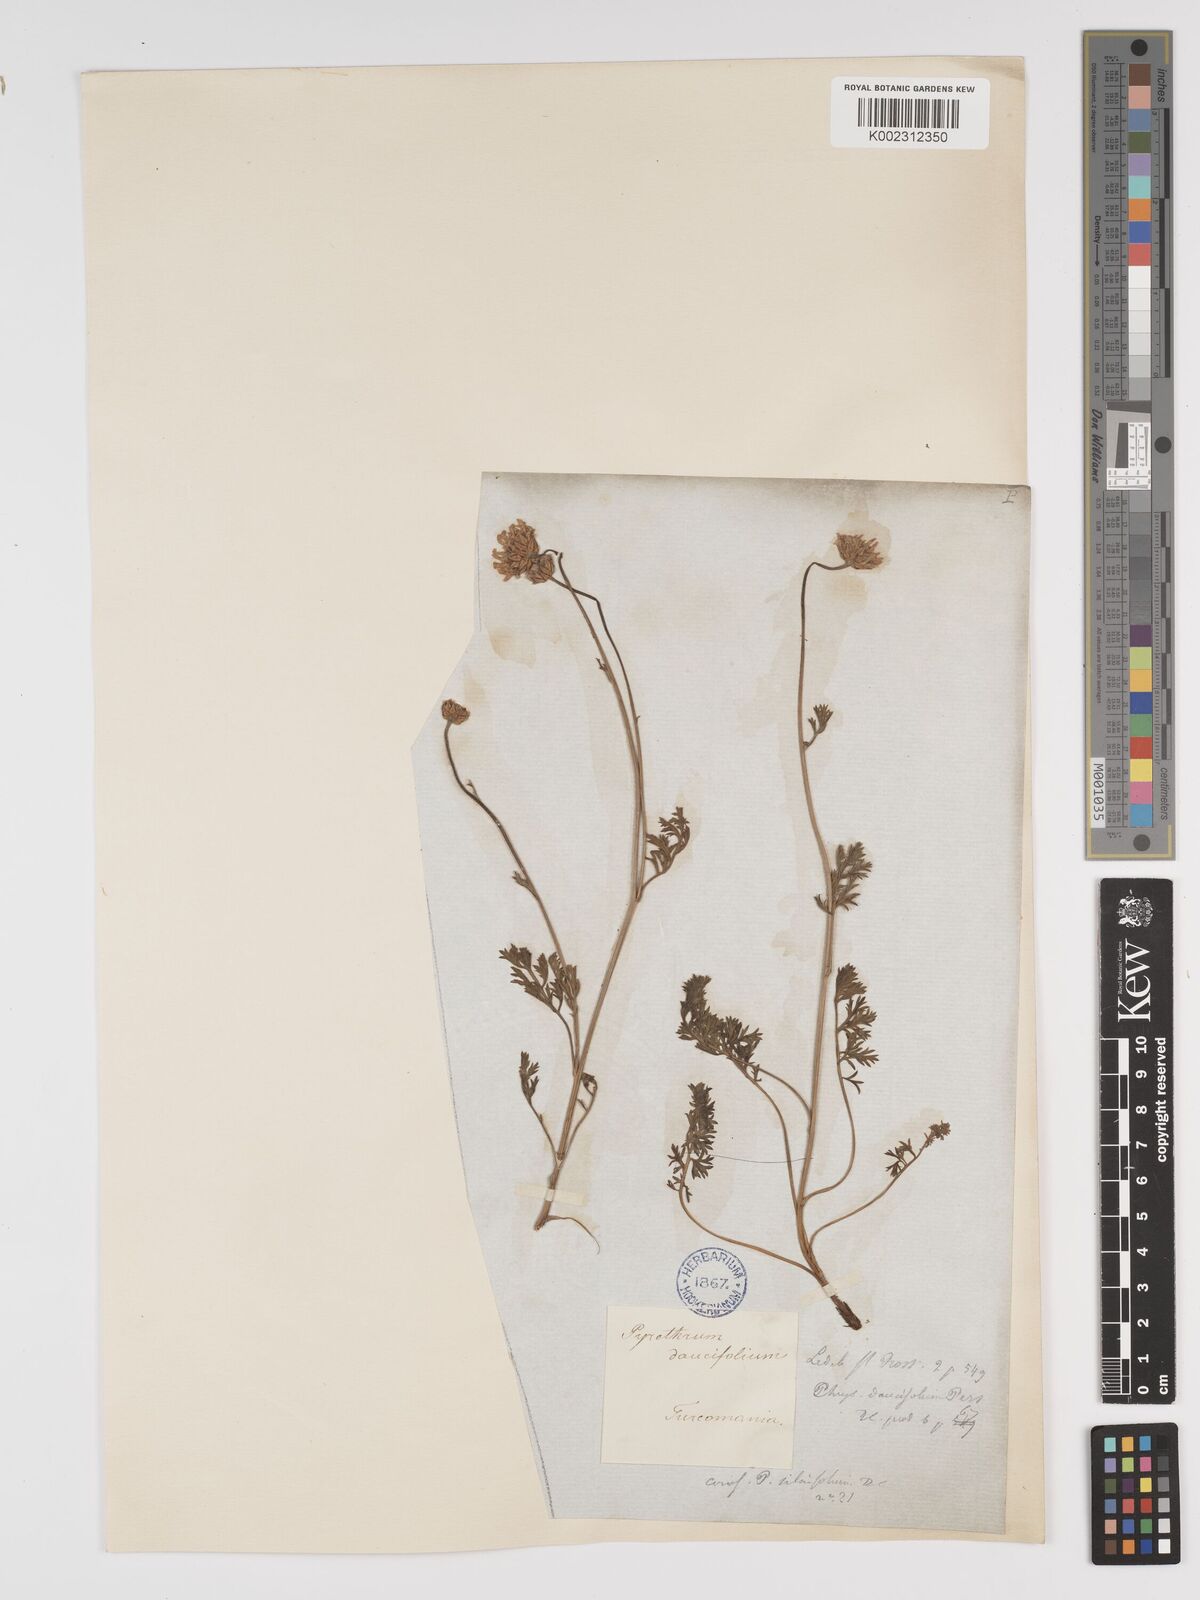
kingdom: Plantae
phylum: Tracheophyta
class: Magnoliopsida
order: Asterales
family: Asteraceae
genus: Tanacetum
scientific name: Tanacetum
